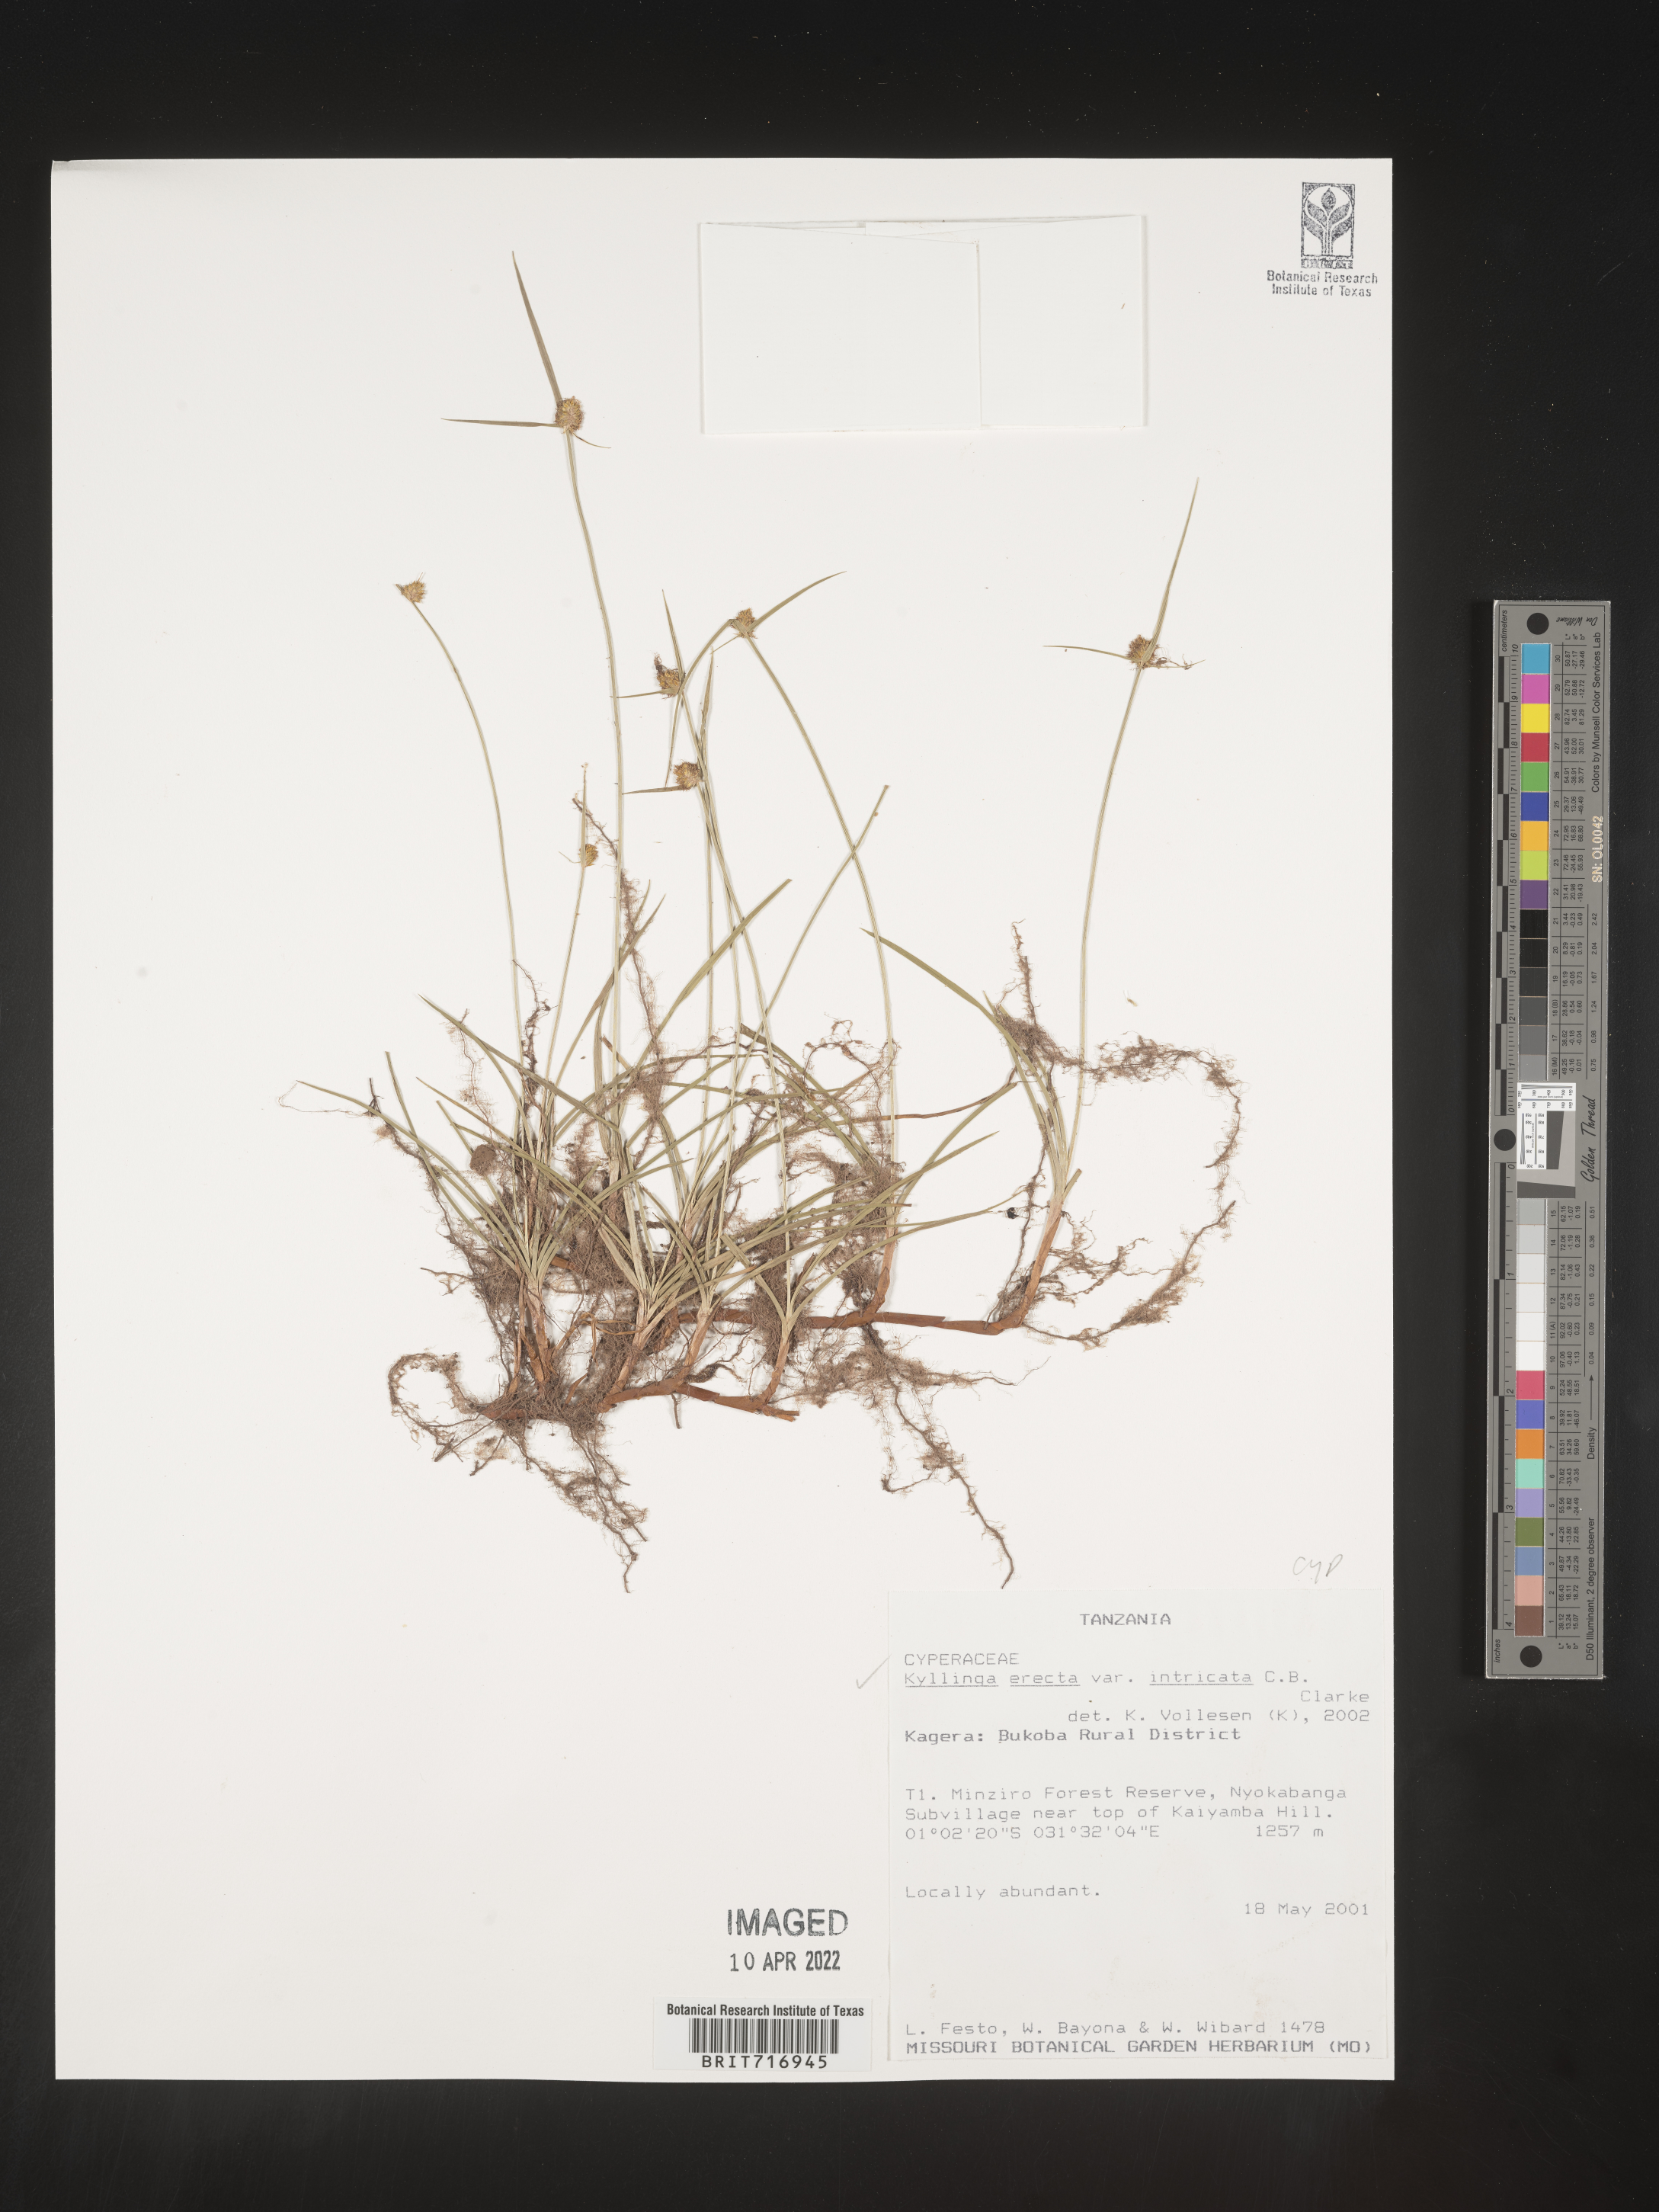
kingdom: Plantae
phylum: Tracheophyta
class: Liliopsida
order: Poales
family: Cyperaceae
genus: Cyperus
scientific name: Cyperus
